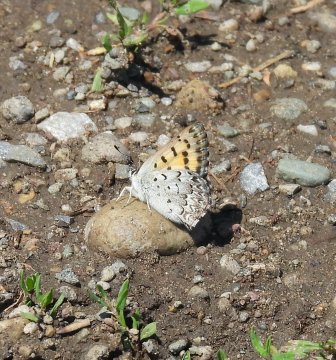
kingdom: Animalia
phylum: Arthropoda
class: Insecta
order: Lepidoptera
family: Lycaenidae
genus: Lycaena
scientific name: Lycaena mariposa
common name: Mariposa Copper
